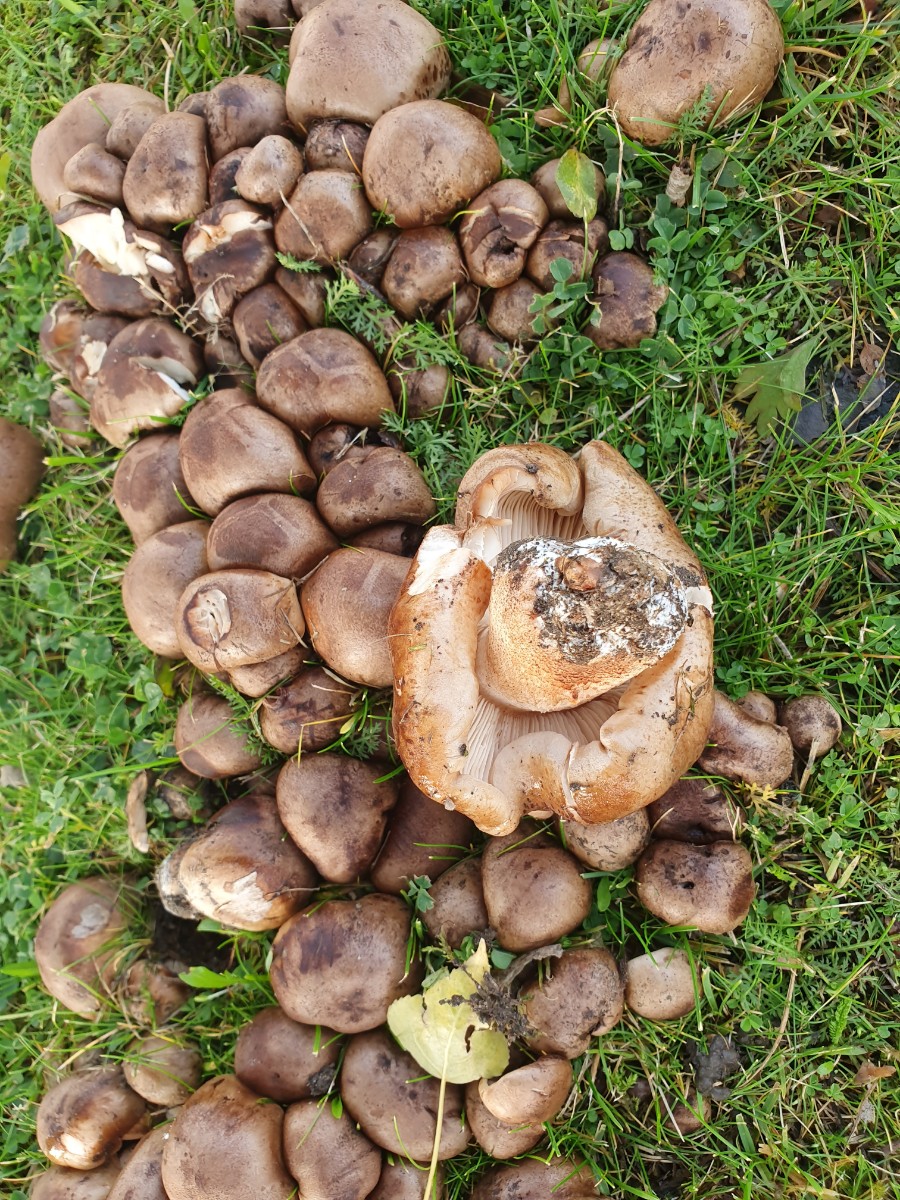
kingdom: Fungi
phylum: Basidiomycota
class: Agaricomycetes
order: Agaricales
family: Tricholomataceae
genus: Tricholoma
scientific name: Tricholoma populinum
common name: poppel-ridderhat
